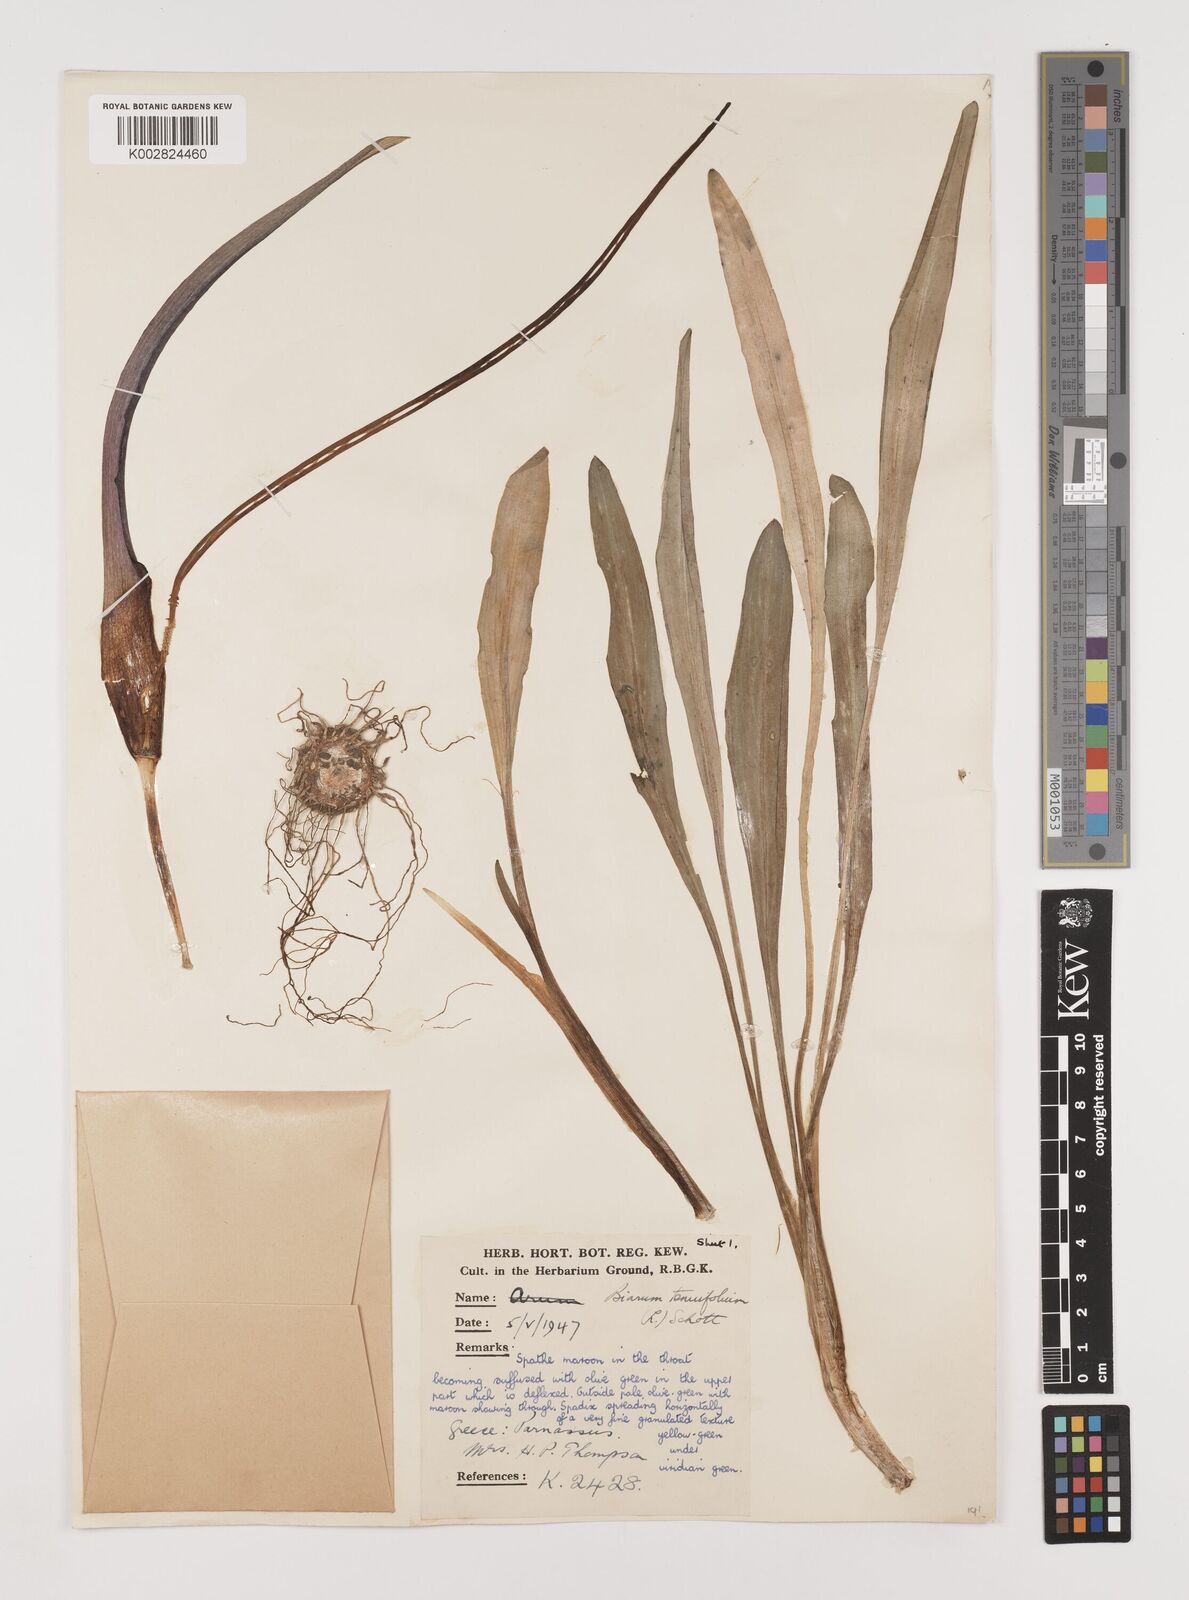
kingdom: Plantae
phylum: Tracheophyta
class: Liliopsida
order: Alismatales
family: Araceae
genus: Biarum
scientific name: Biarum tenuifolium
